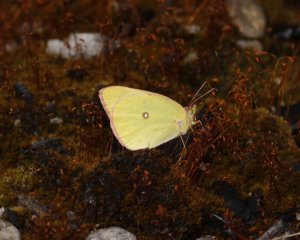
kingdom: Animalia
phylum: Arthropoda
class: Insecta
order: Lepidoptera
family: Pieridae
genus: Colias
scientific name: Colias interior
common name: Pink-edged Sulphur
